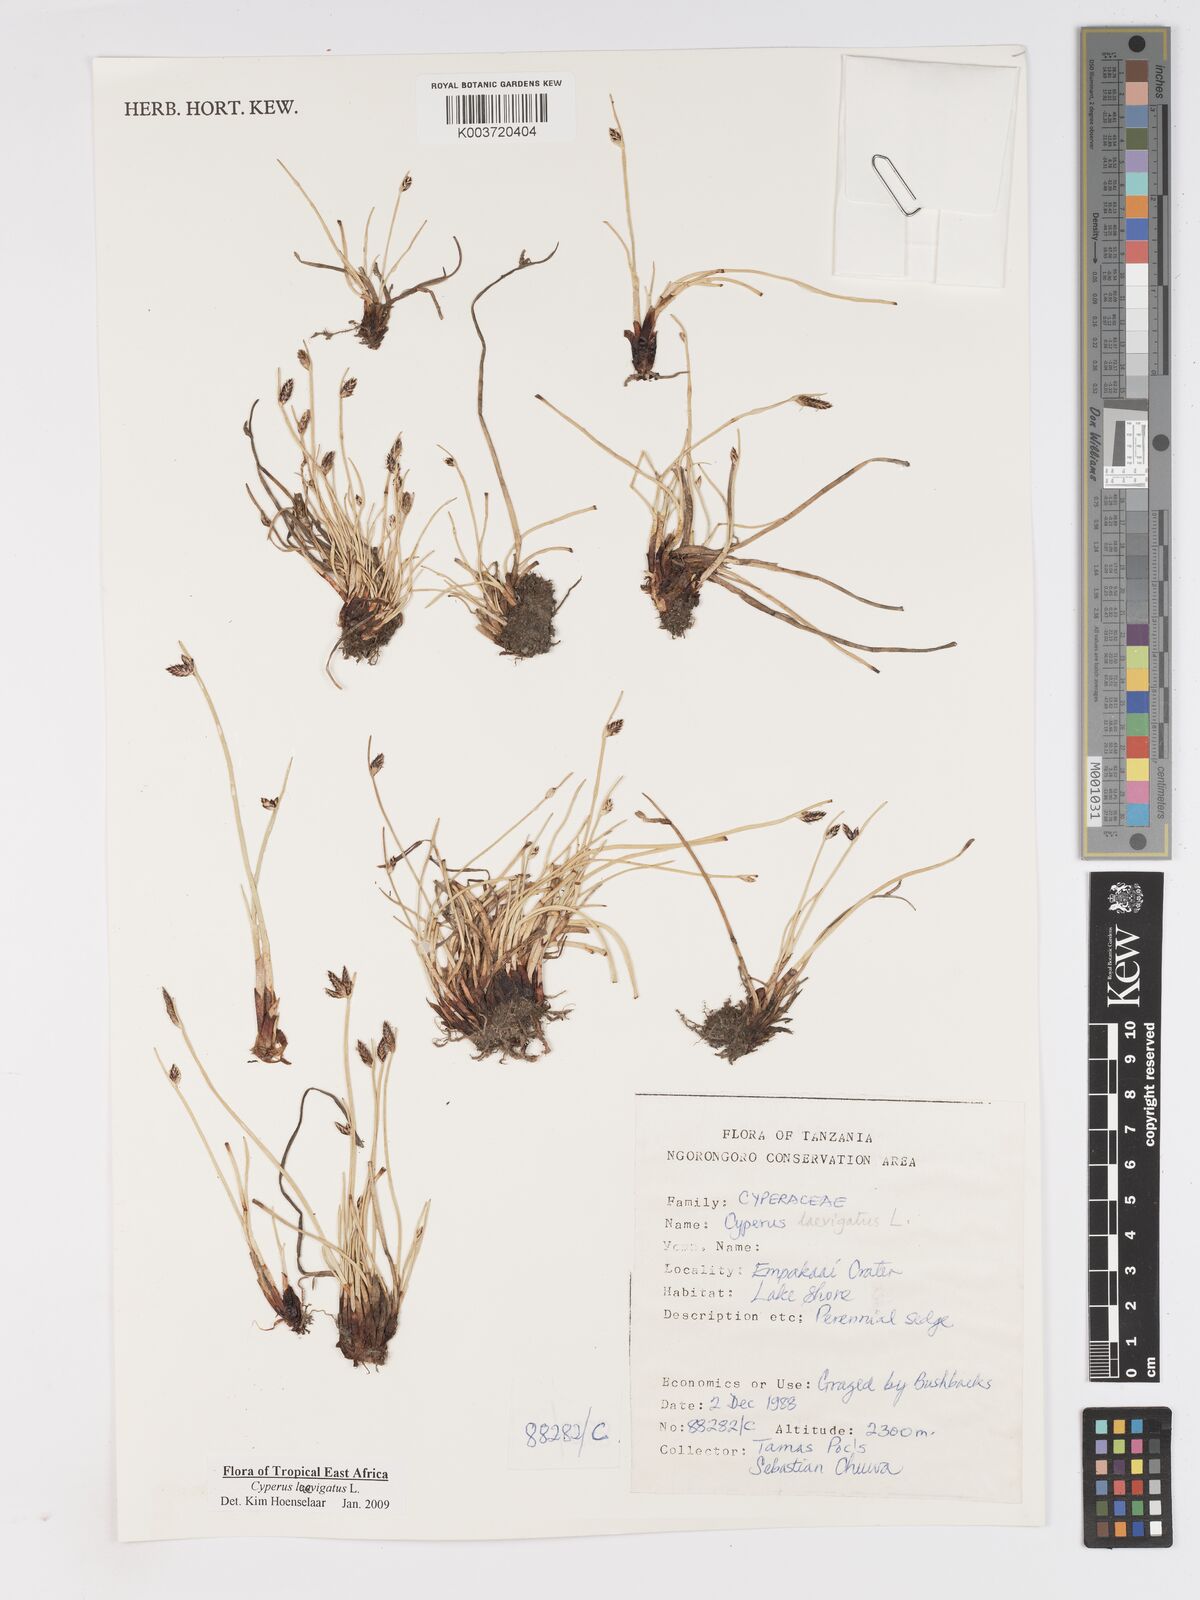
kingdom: Plantae
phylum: Tracheophyta
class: Liliopsida
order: Poales
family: Cyperaceae
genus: Cyperus
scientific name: Cyperus laevigatus
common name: Smooth flat sedge
